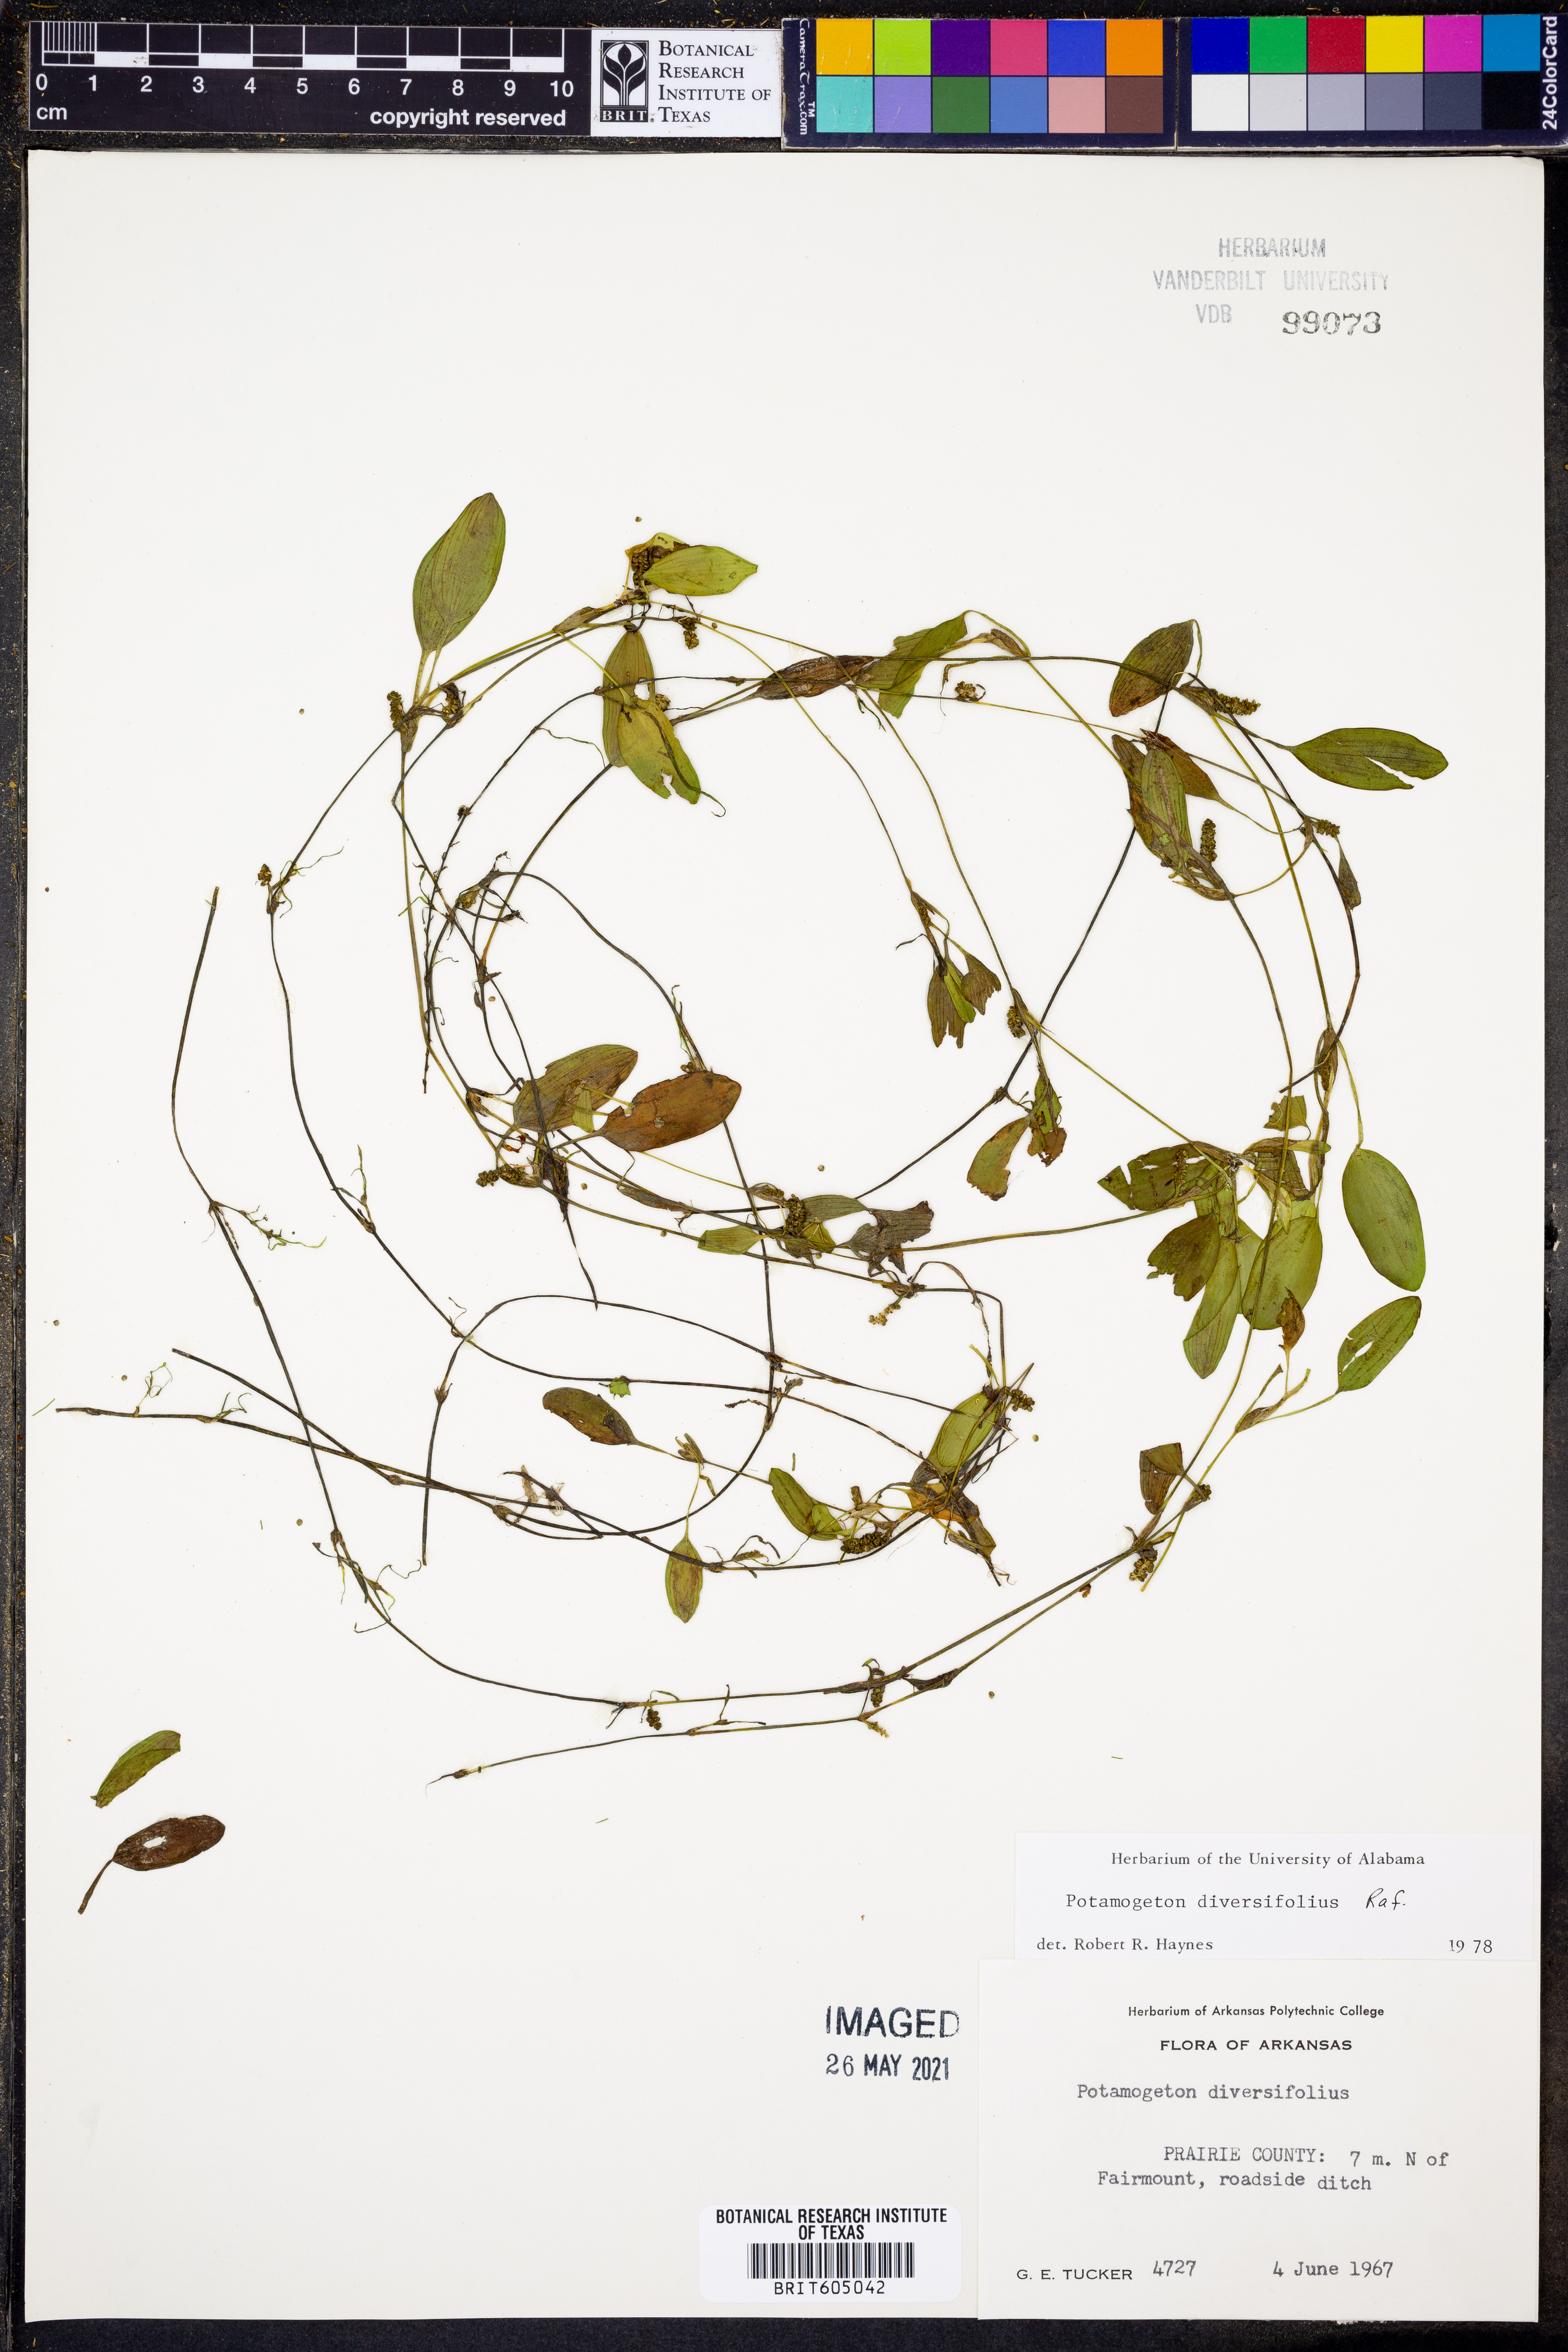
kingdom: Plantae
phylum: Tracheophyta
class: Liliopsida
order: Alismatales
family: Potamogetonaceae
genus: Potamogeton
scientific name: Potamogeton diversifolius
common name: Water-thread pondweed
